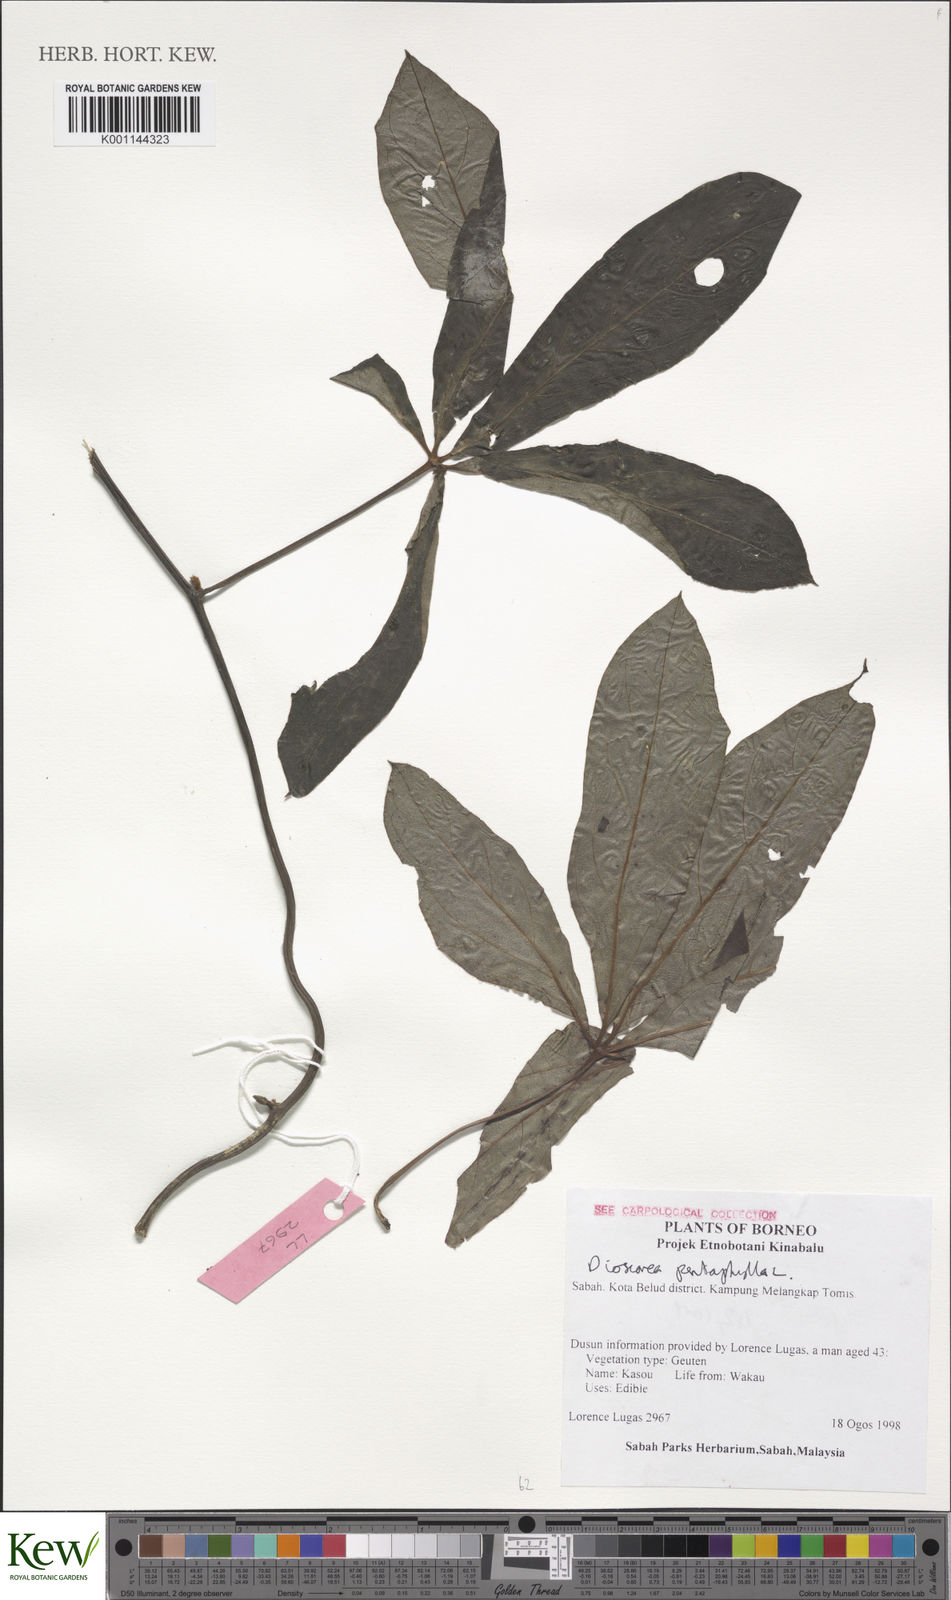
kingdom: Plantae
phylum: Tracheophyta
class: Liliopsida
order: Dioscoreales
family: Dioscoreaceae
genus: Dioscorea
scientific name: Dioscorea pentaphylla
